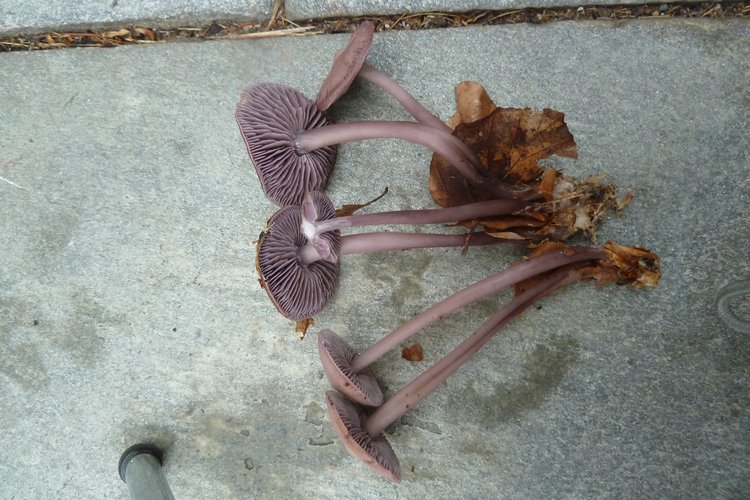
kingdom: Fungi
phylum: Basidiomycota
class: Agaricomycetes
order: Agaricales
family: Mycenaceae
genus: Prunulus
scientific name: Prunulus diosmus
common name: tobaks-huesvamp
